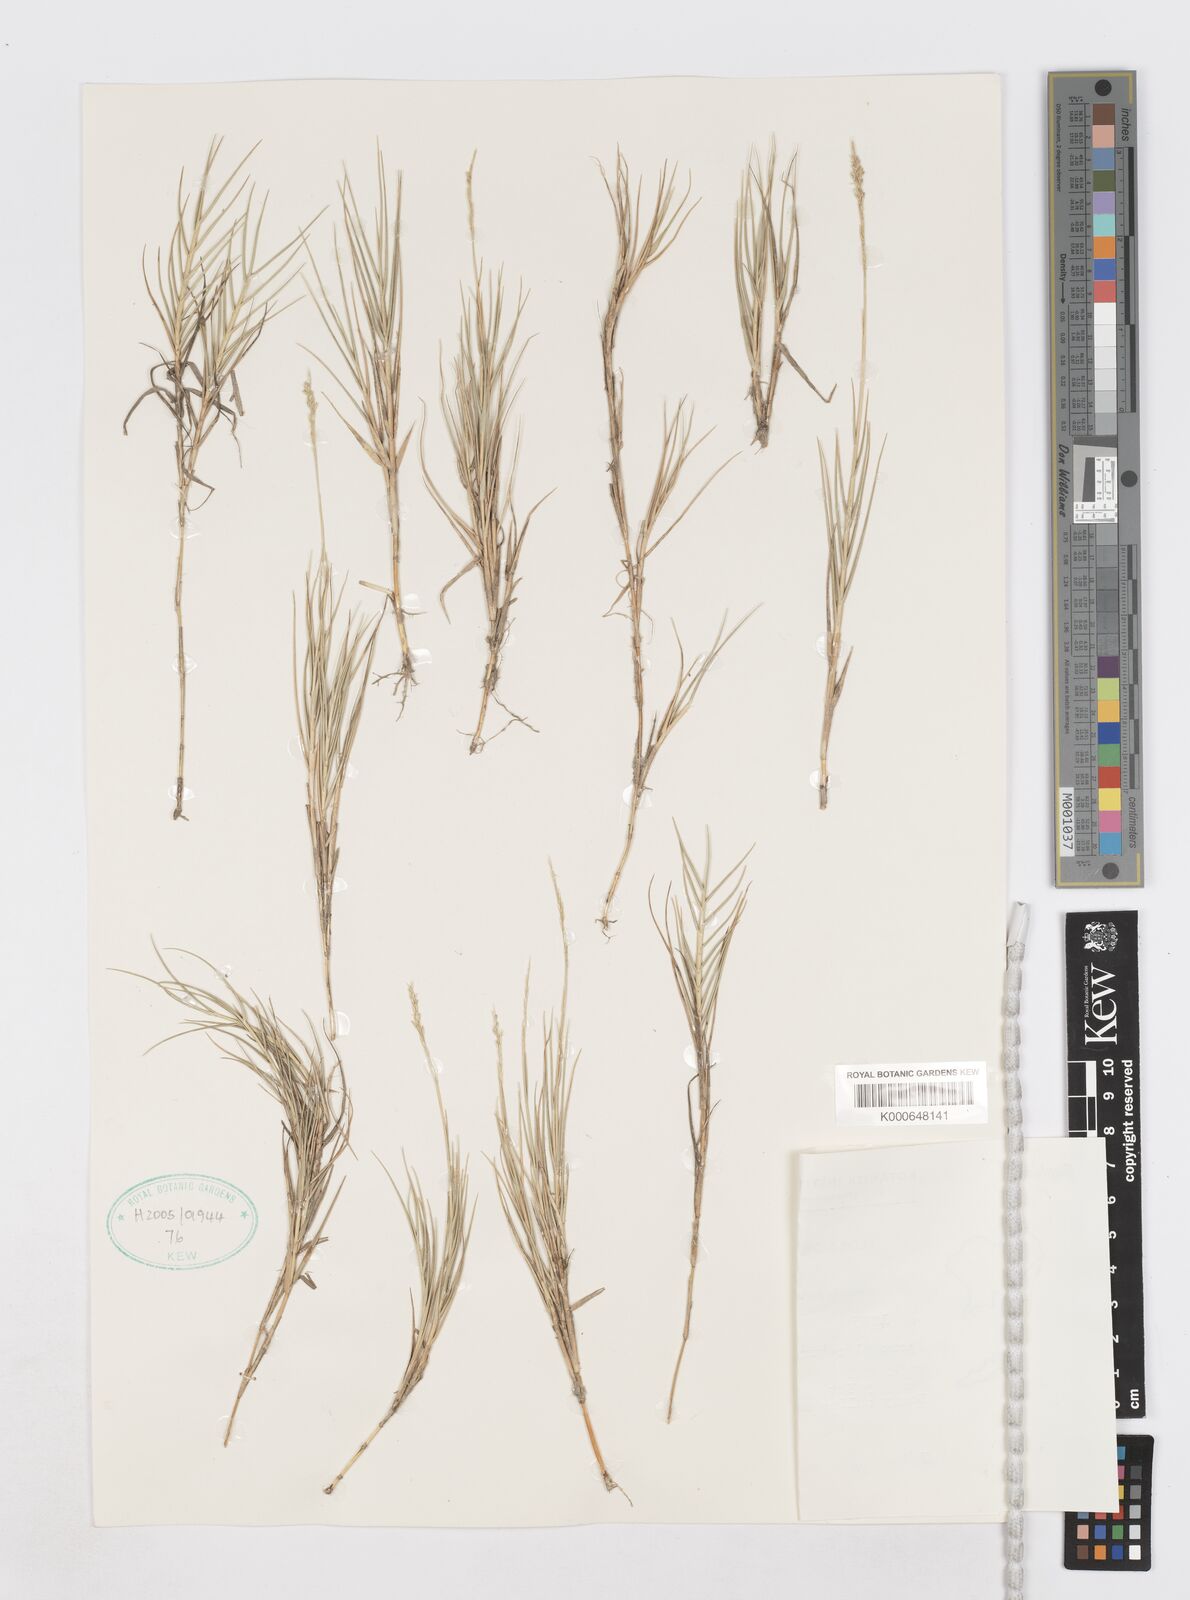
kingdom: Plantae
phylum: Tracheophyta
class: Liliopsida
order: Poales
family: Poaceae
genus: Sporobolus
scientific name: Sporobolus virginicus
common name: Beach dropseed
